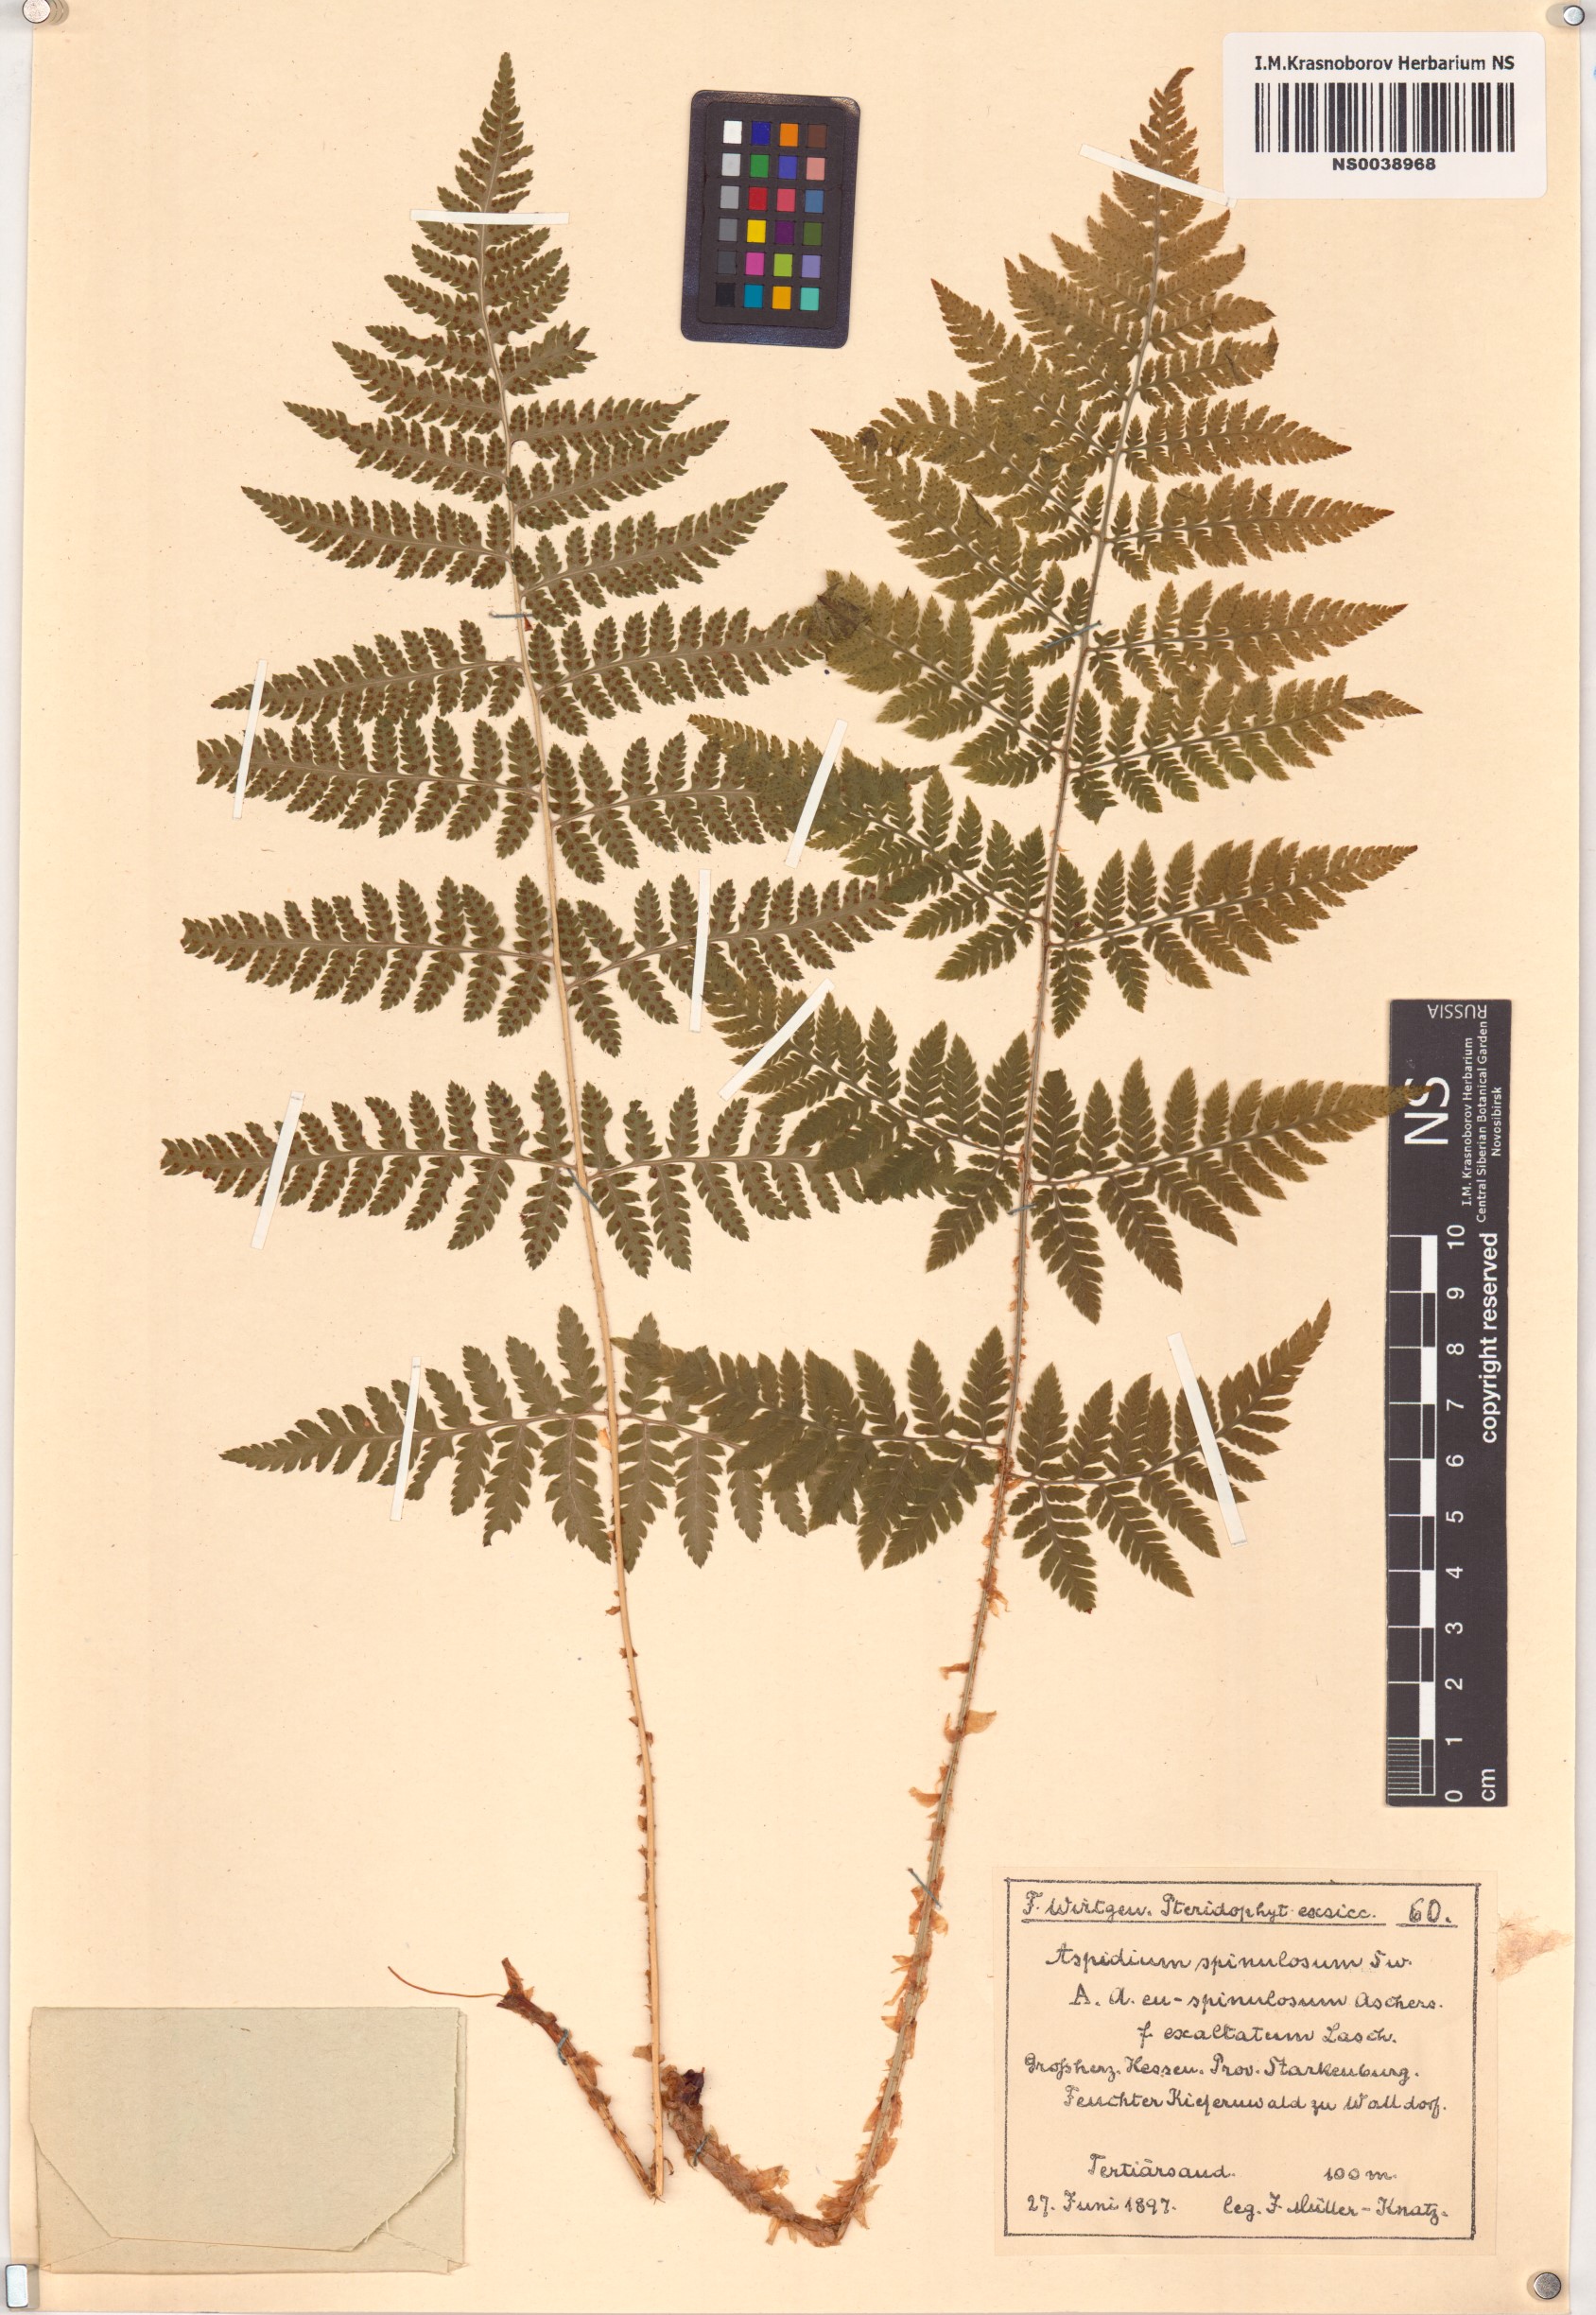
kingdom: Plantae
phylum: Tracheophyta
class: Polypodiopsida
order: Polypodiales
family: Dryopteridaceae
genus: Dryopteris
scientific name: Dryopteris carthusiana
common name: Narrow buckler-fern
